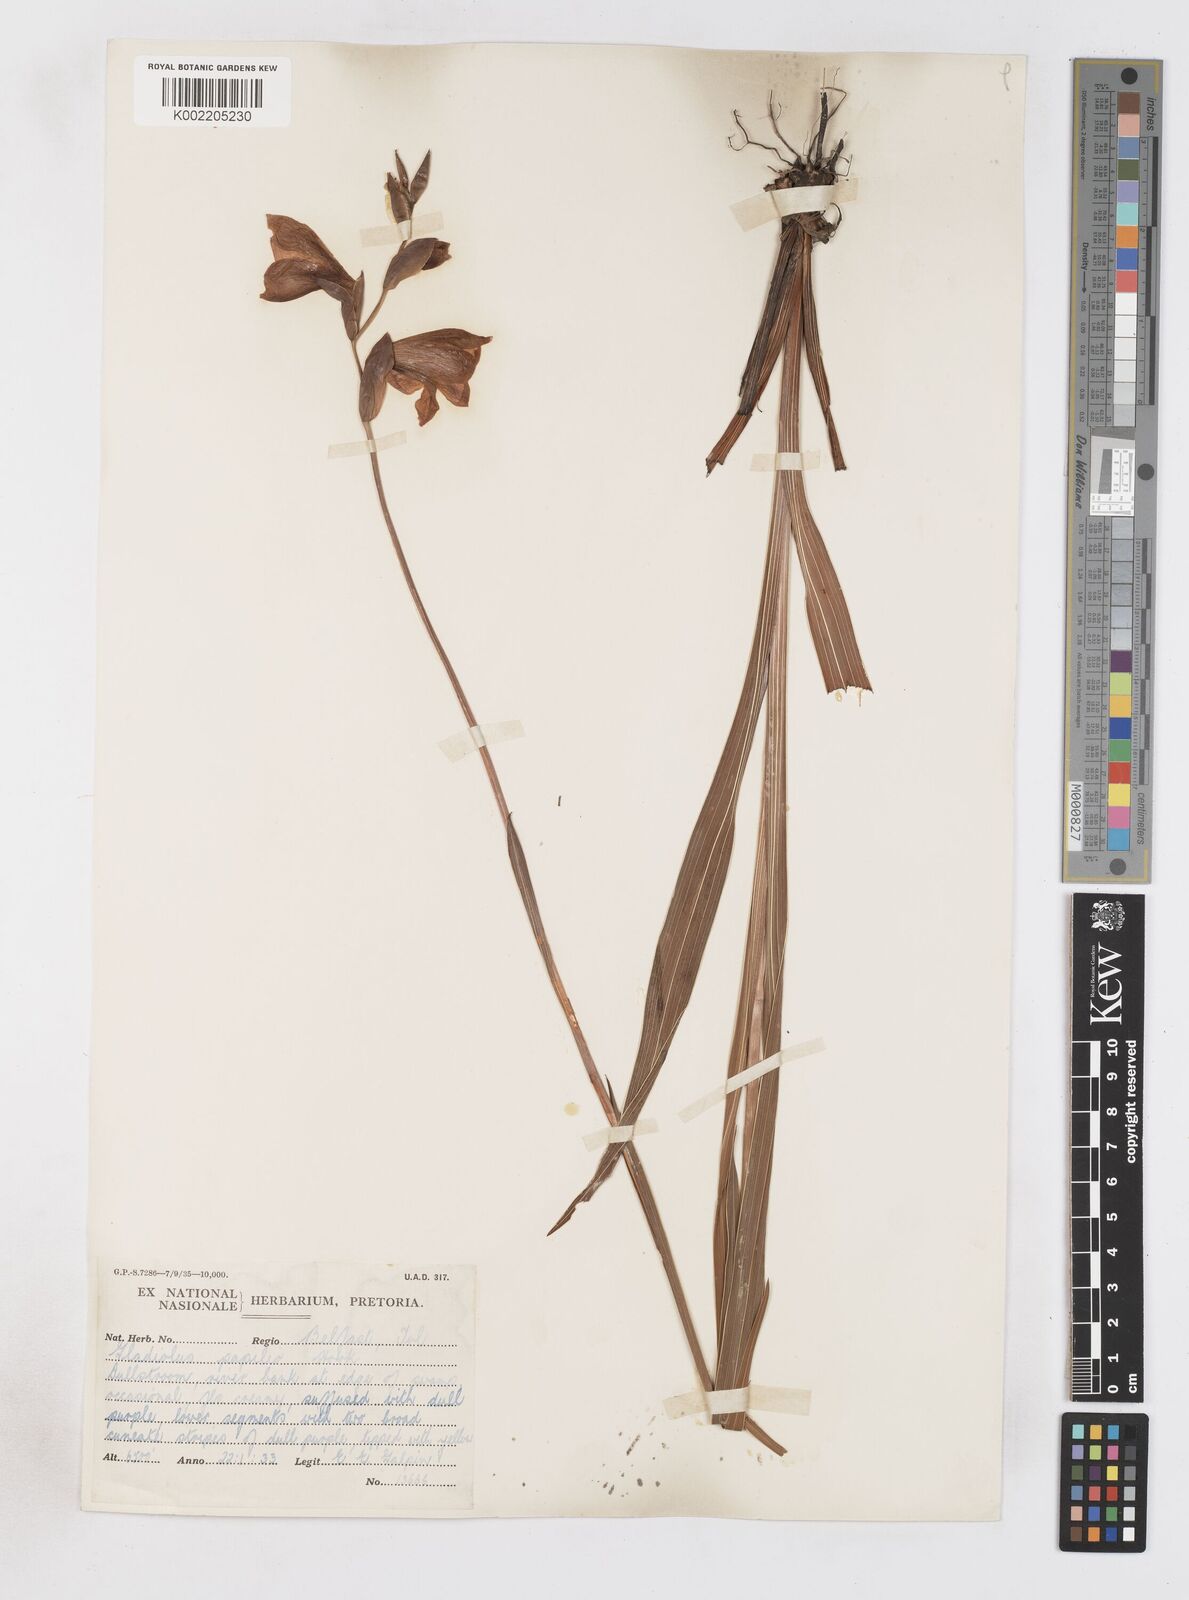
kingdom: Plantae
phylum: Tracheophyta
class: Liliopsida
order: Asparagales
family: Iridaceae
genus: Gladiolus
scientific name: Gladiolus papilio
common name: Goldblotch gladiolus
